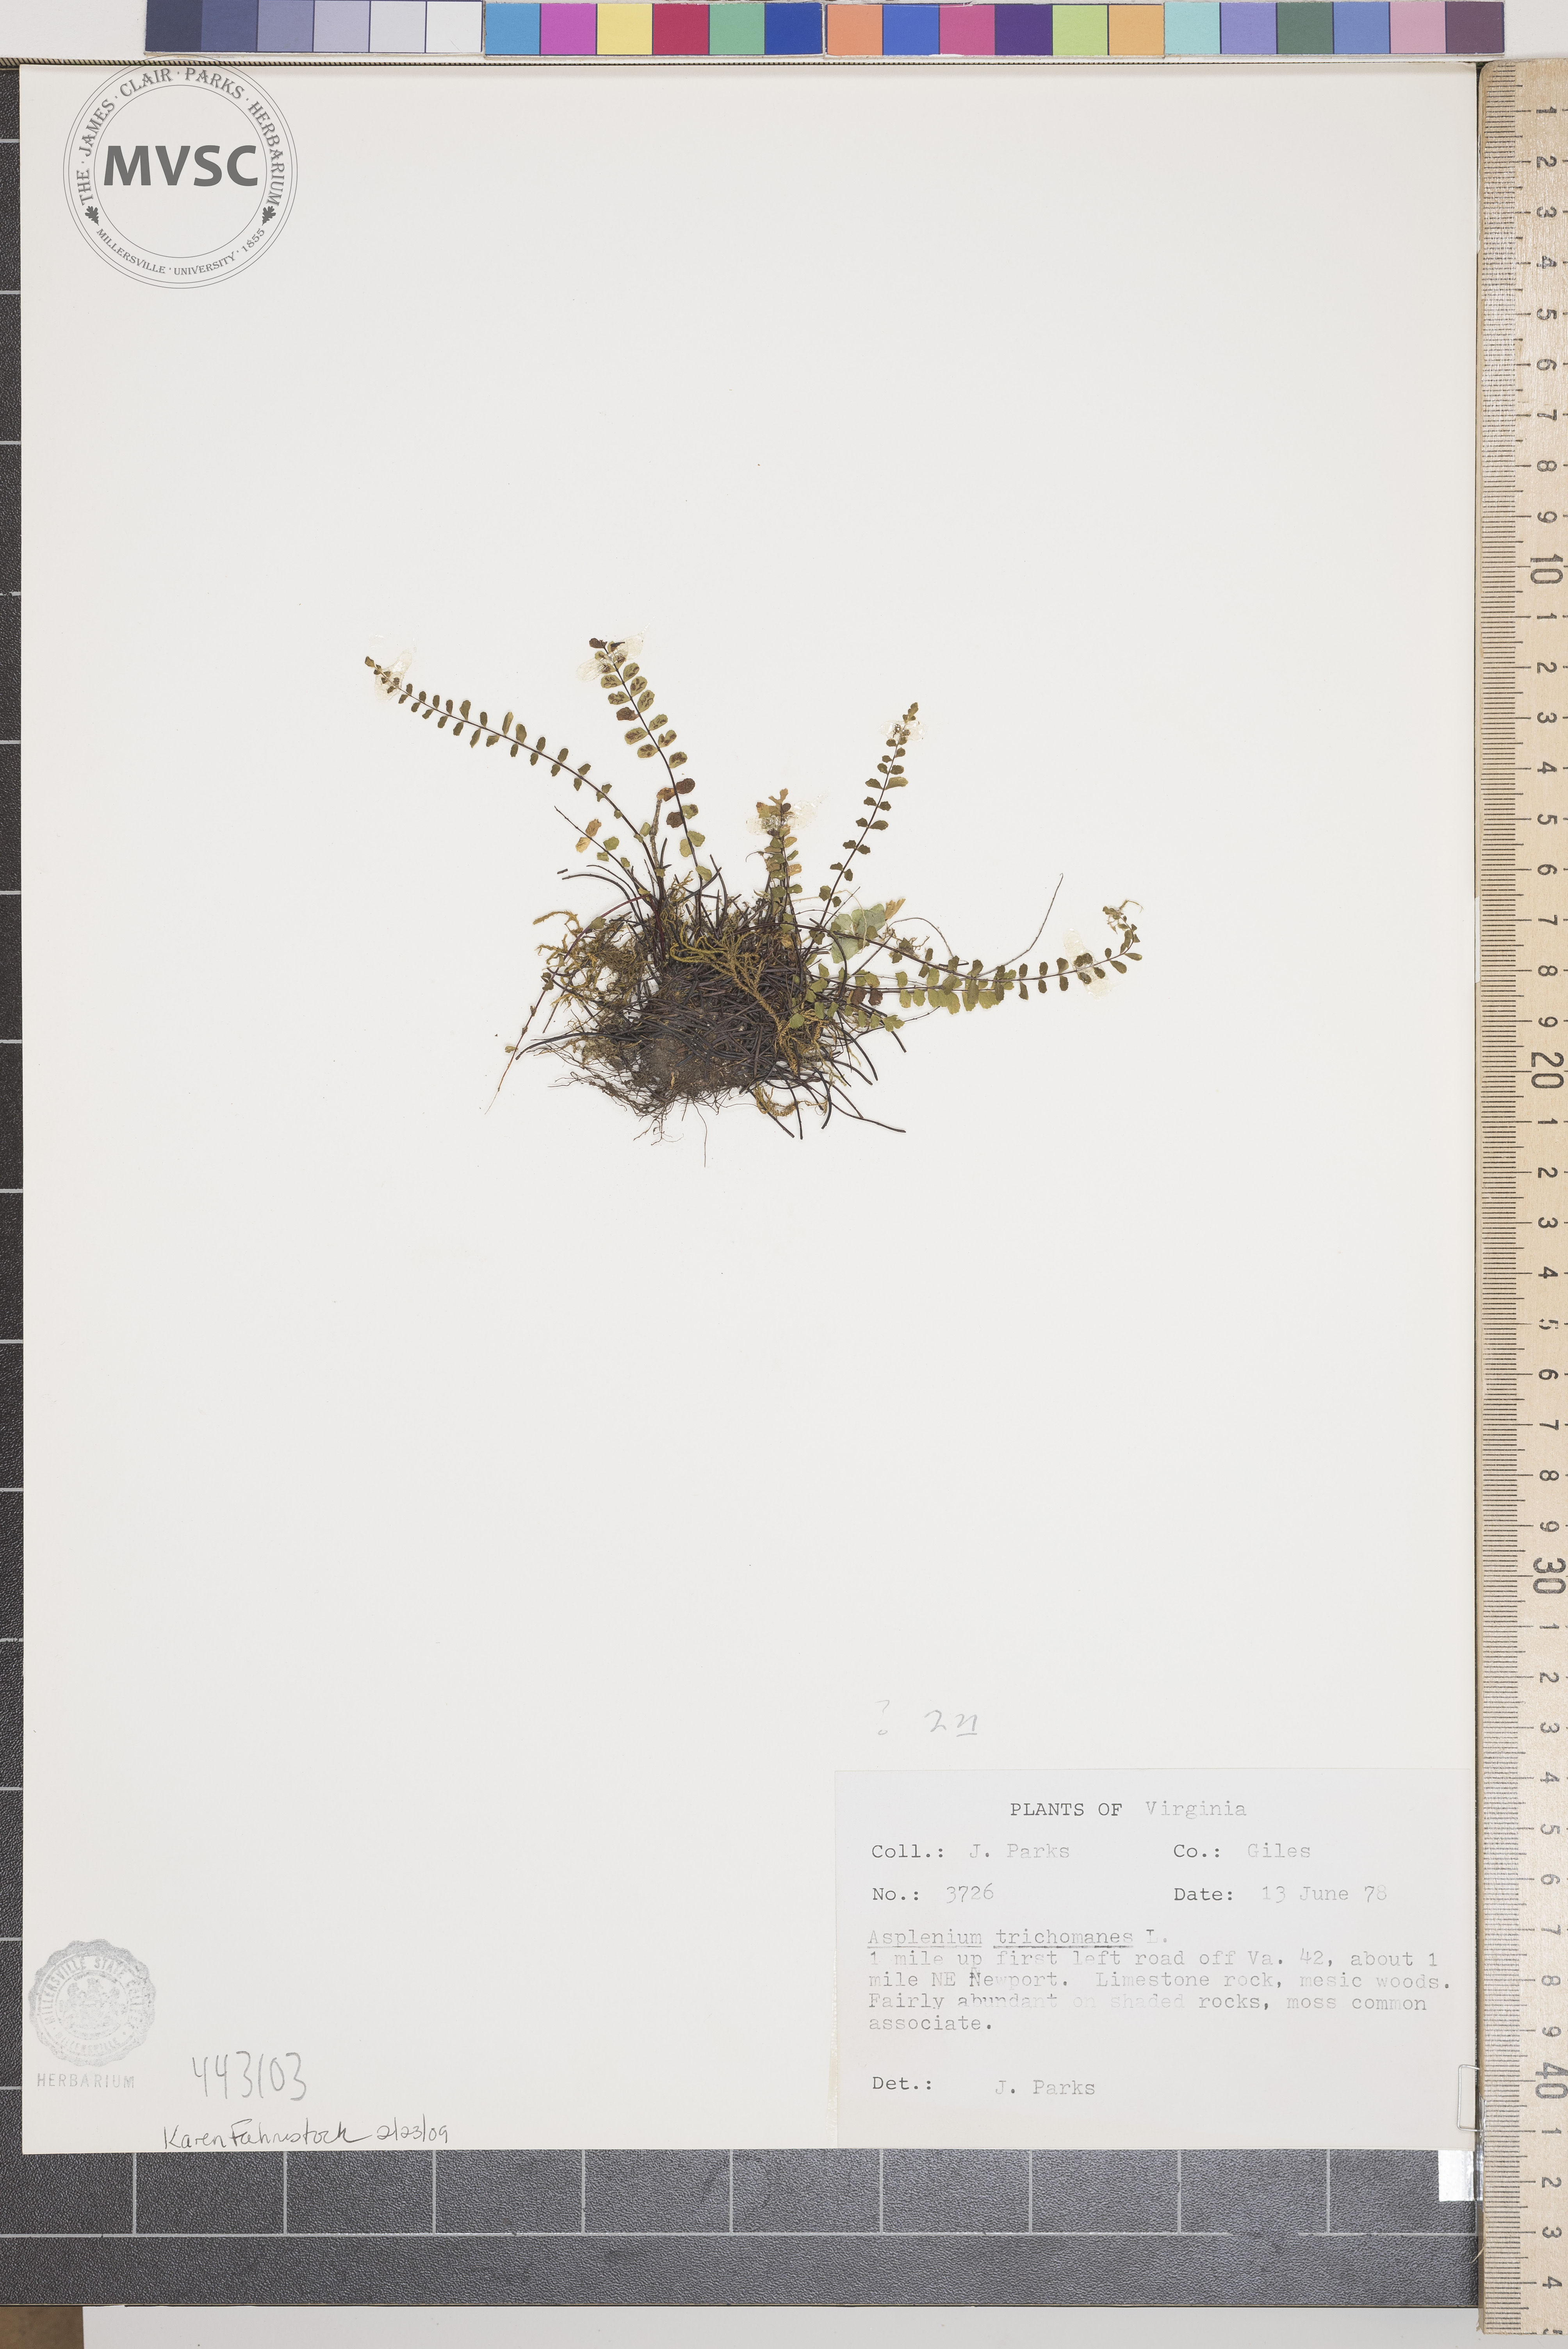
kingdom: Plantae
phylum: Tracheophyta
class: Polypodiopsida
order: Polypodiales
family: Aspleniaceae
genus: Asplenium
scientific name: Asplenium trichomanes
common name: Maidenhair spleenwort
